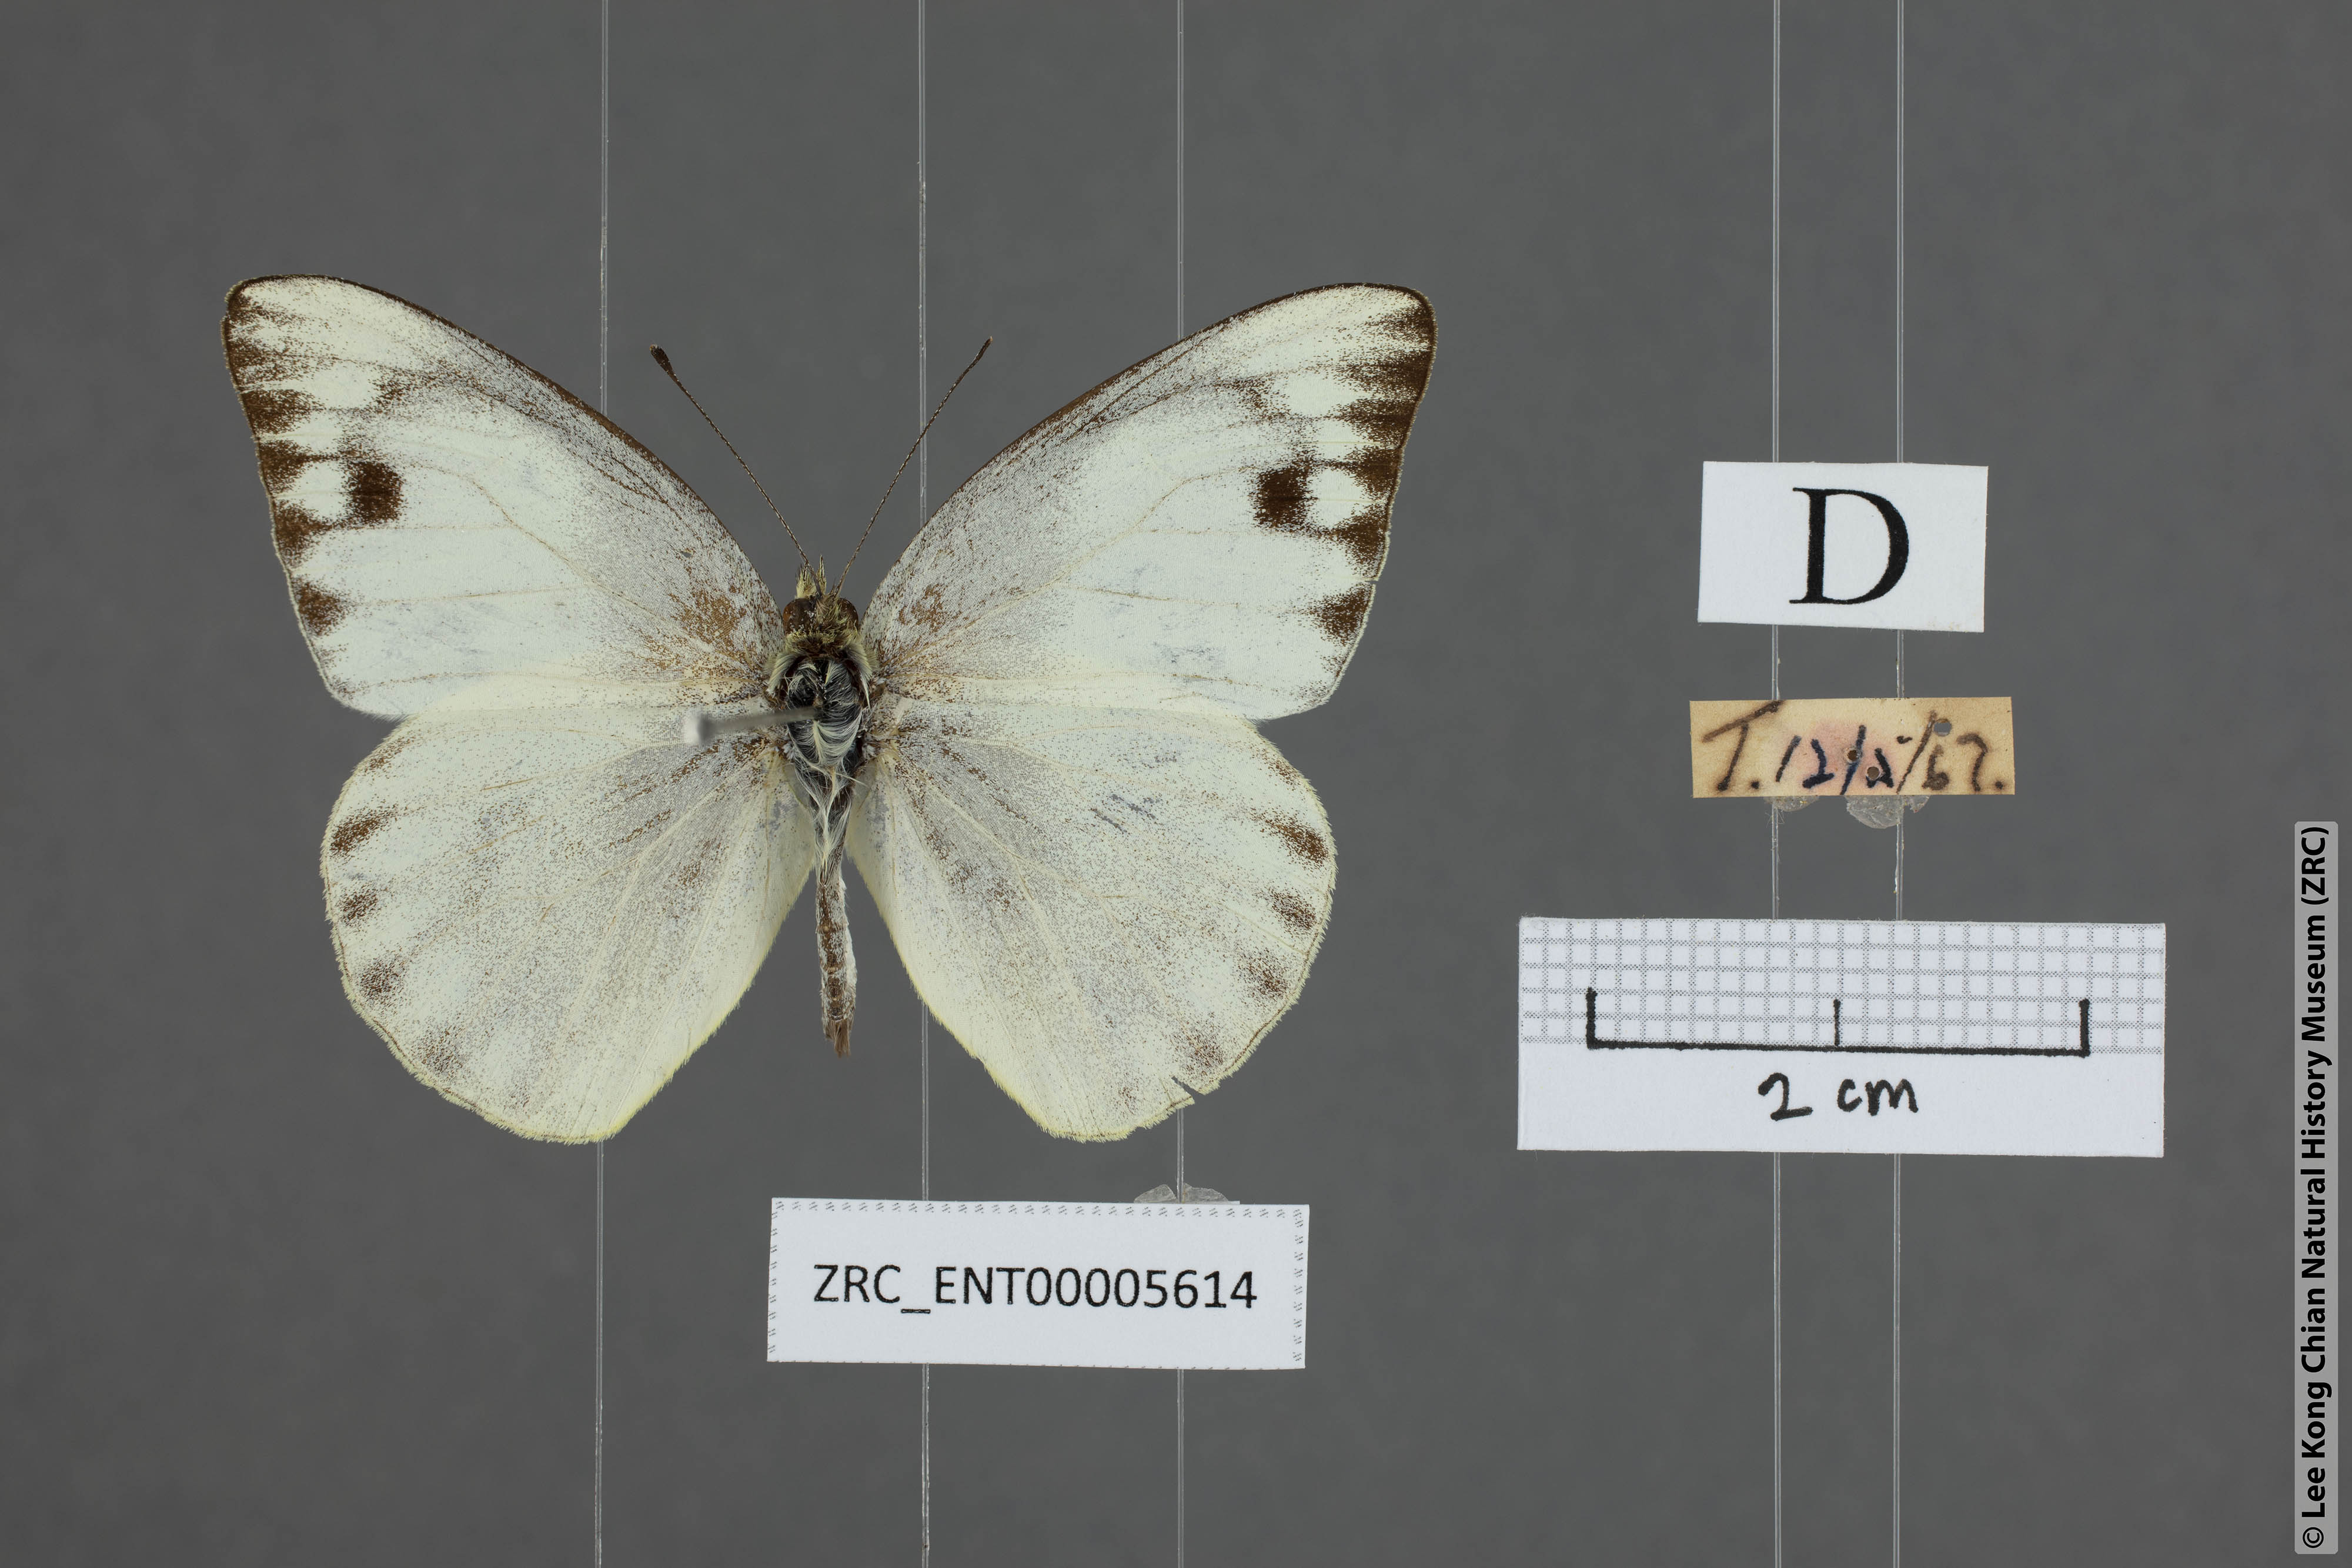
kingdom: Animalia
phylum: Arthropoda
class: Insecta
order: Lepidoptera
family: Pieridae
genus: Appias
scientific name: Appias paulina
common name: Ceylon lesser albatross
